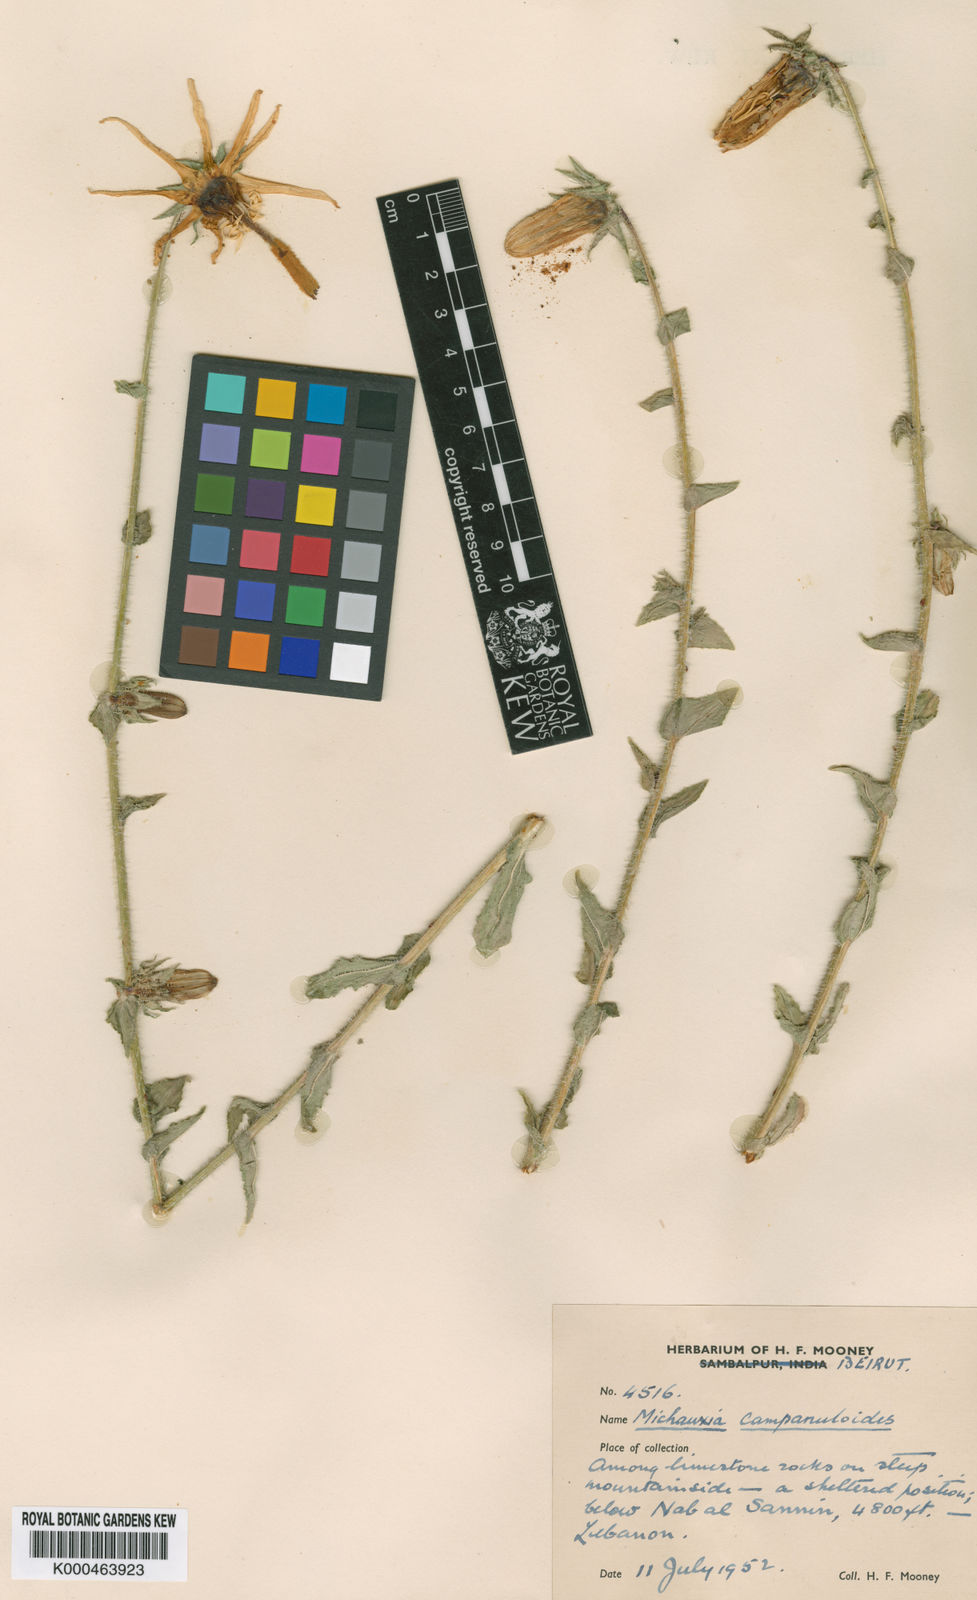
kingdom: Plantae
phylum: Tracheophyta
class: Magnoliopsida
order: Asterales
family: Campanulaceae
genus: Michauxia
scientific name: Michauxia
